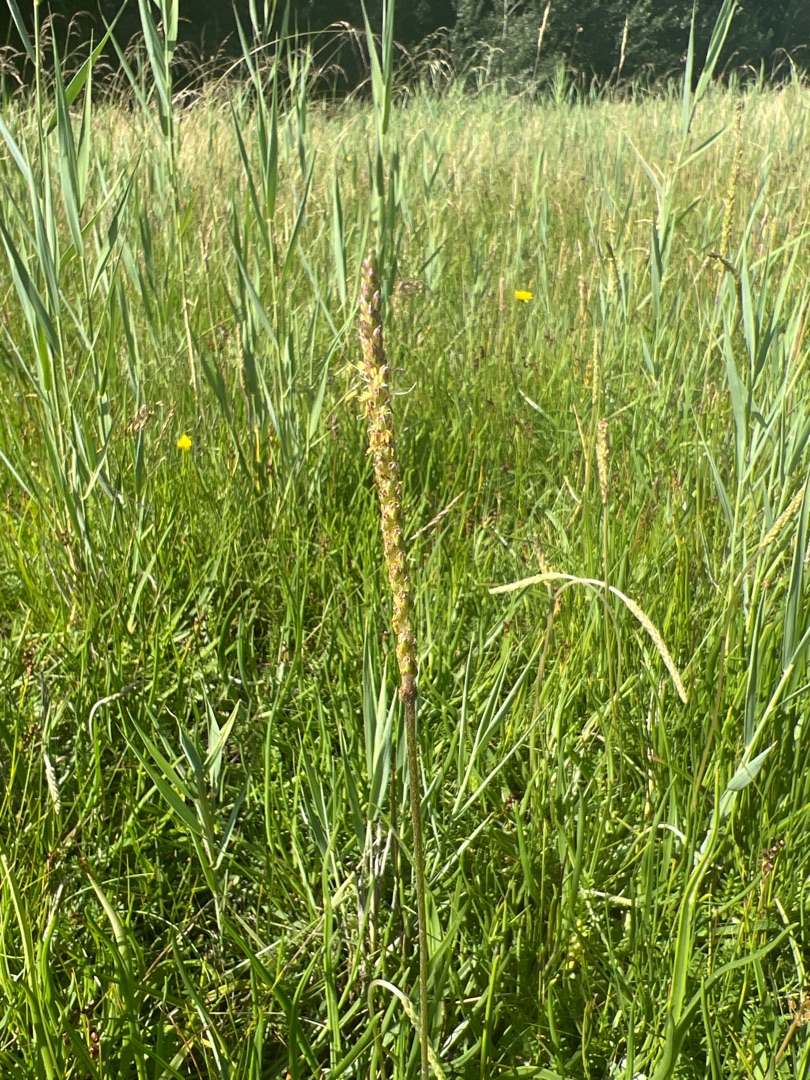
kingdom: Plantae
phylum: Tracheophyta
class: Magnoliopsida
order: Lamiales
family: Plantaginaceae
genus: Plantago
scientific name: Plantago maritima
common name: Strand-vejbred
